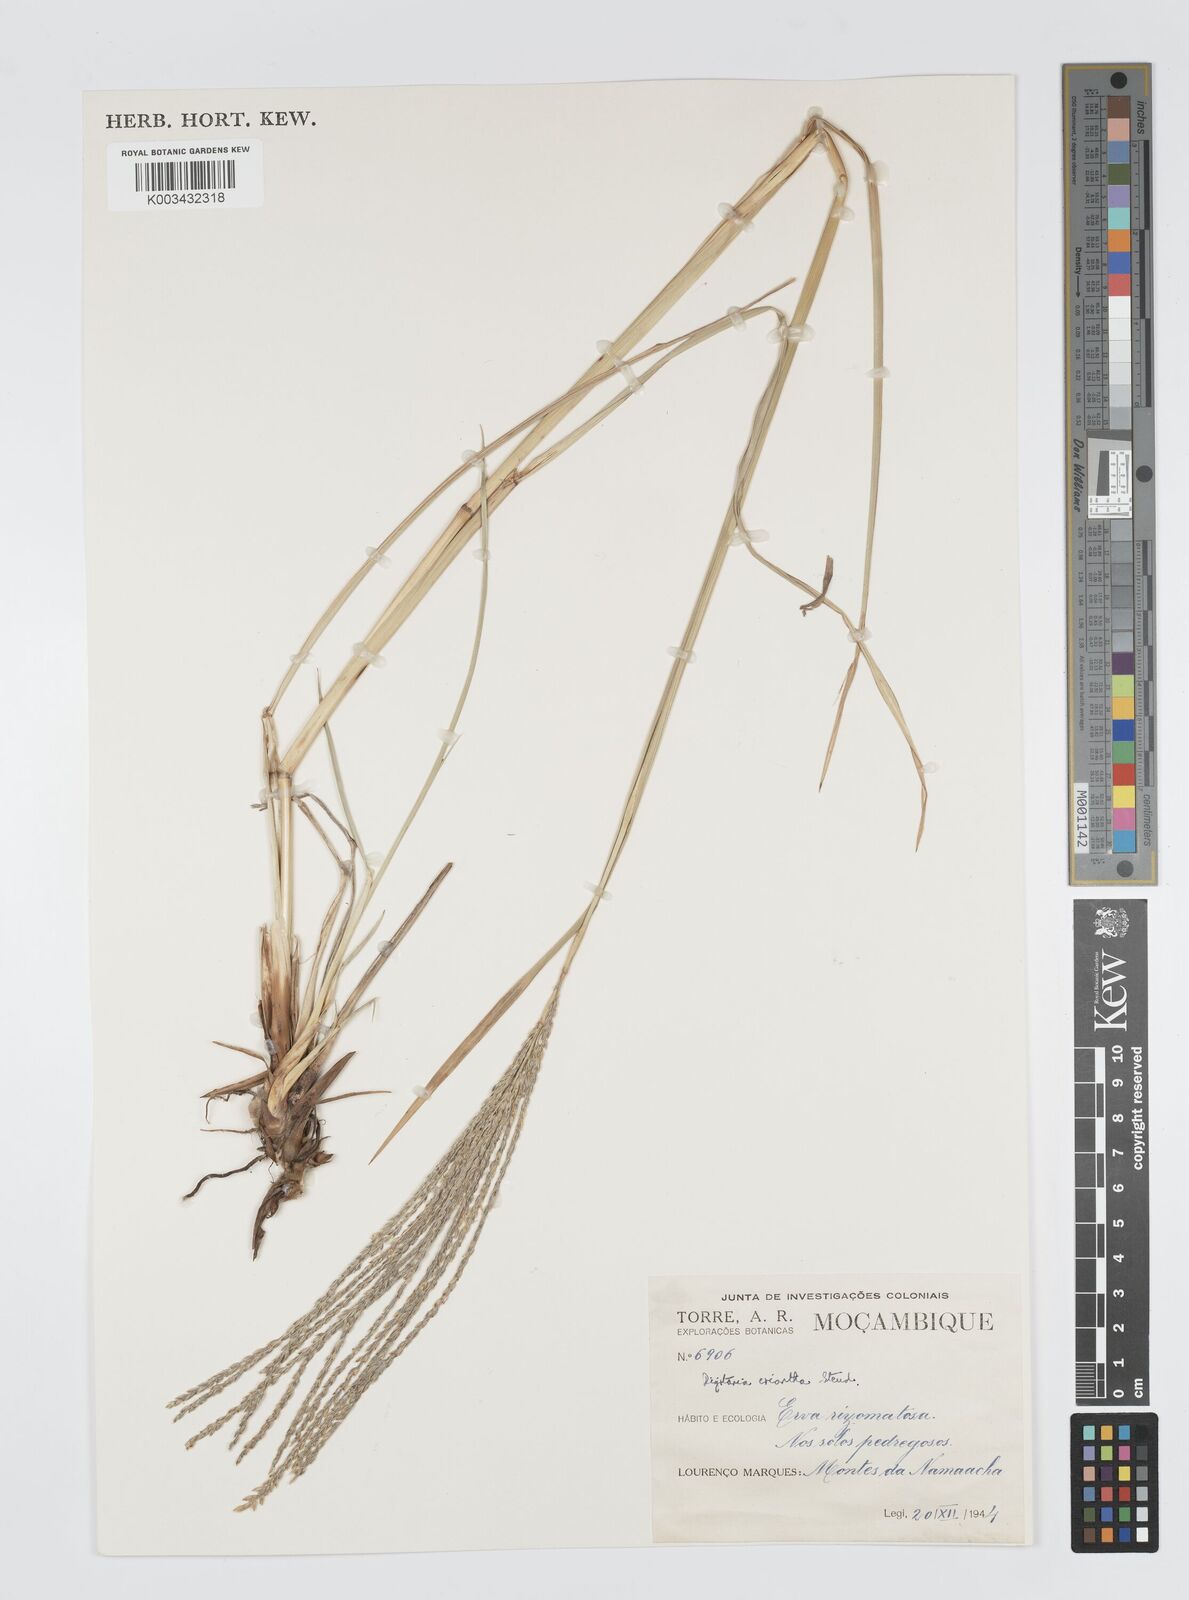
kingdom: Plantae
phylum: Tracheophyta
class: Liliopsida
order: Poales
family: Poaceae
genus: Digitaria
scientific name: Digitaria eriantha
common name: Digitgrass
